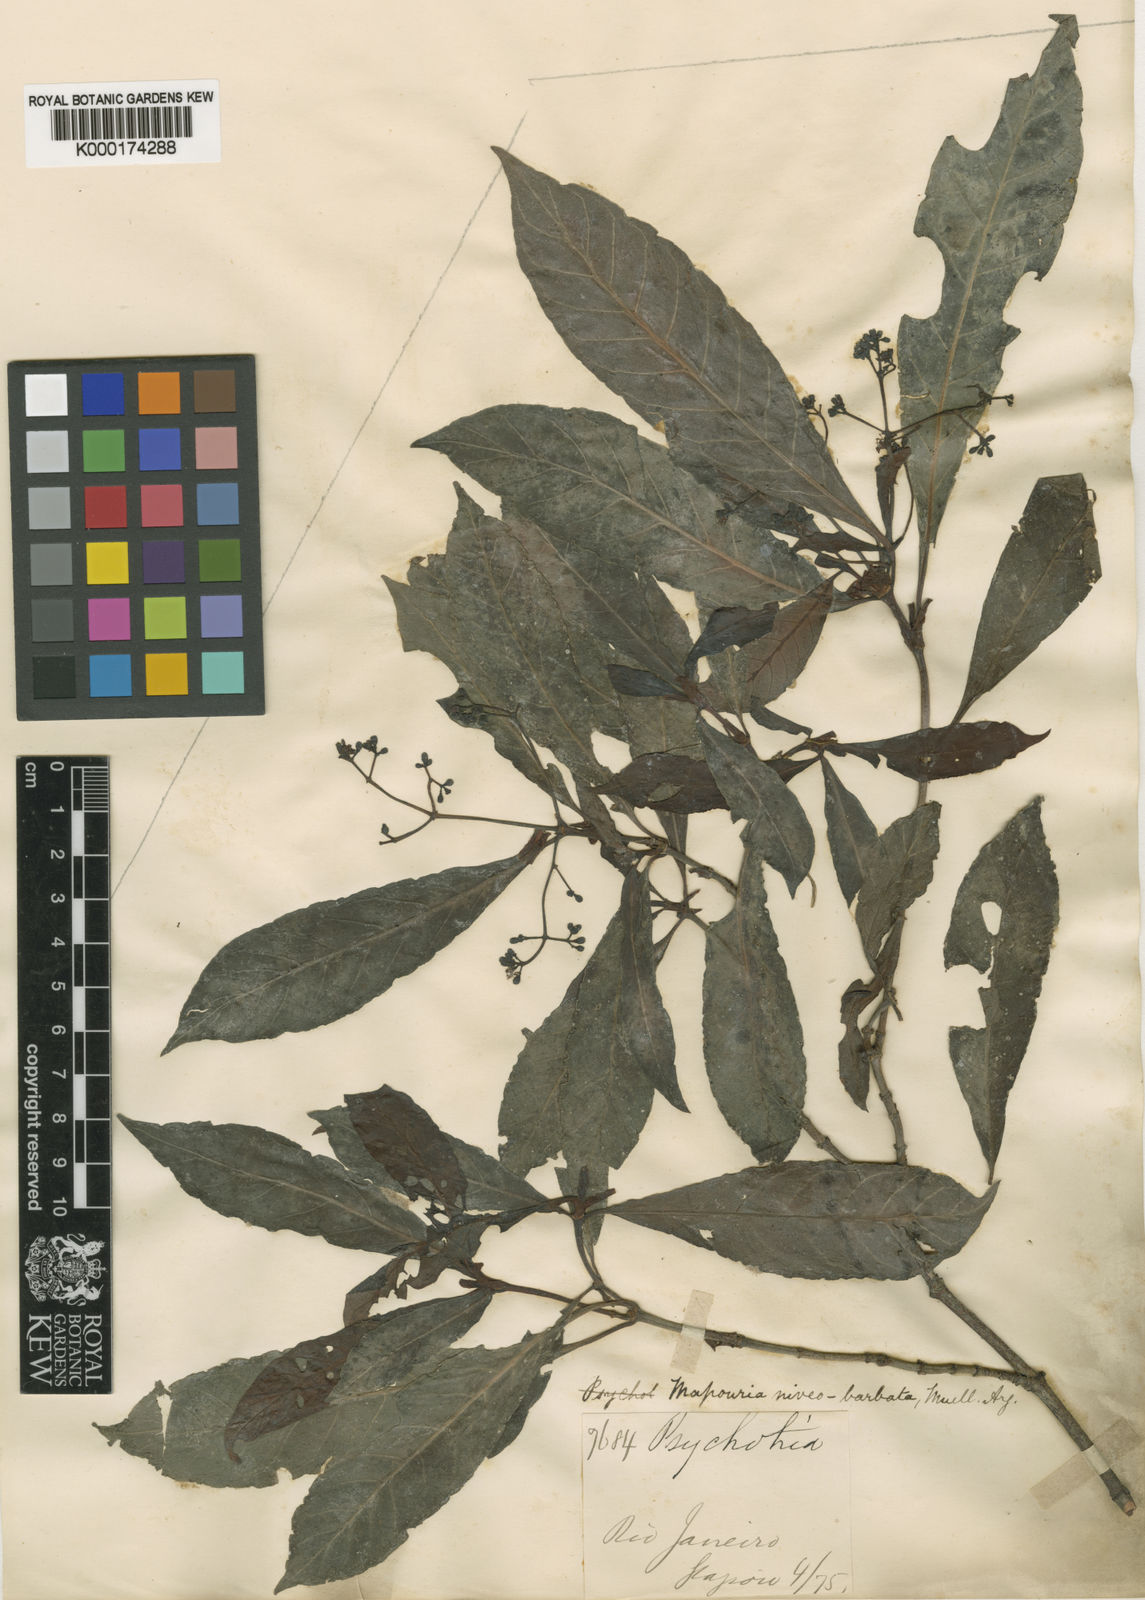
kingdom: Plantae
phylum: Tracheophyta
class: Magnoliopsida
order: Gentianales
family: Rubiaceae
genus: Psychotria
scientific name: Psychotria
